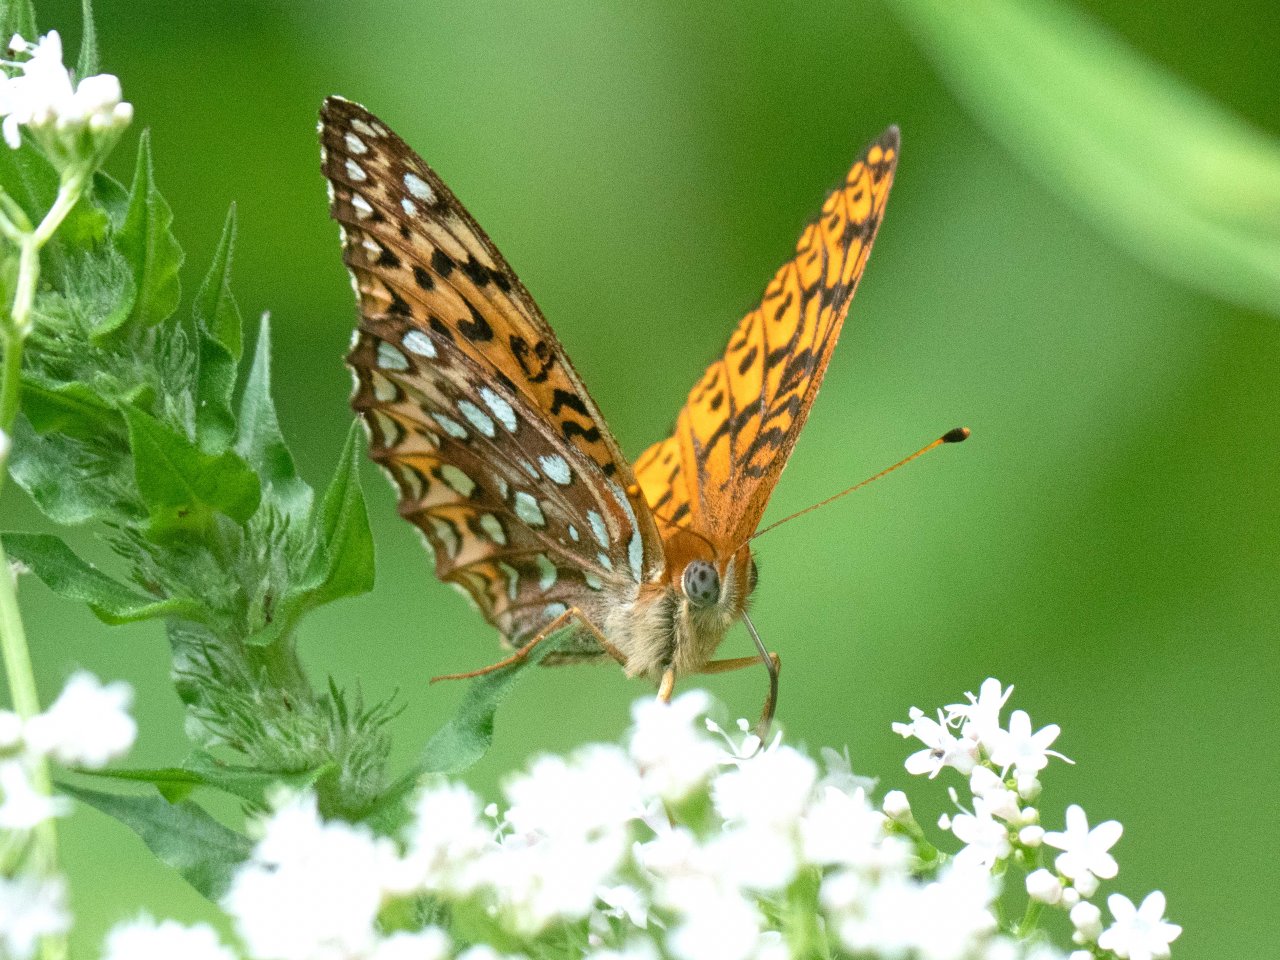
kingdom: Animalia
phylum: Arthropoda
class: Insecta
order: Lepidoptera
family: Nymphalidae
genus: Speyeria
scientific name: Speyeria atlantis
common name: Atlantis Fritillary
